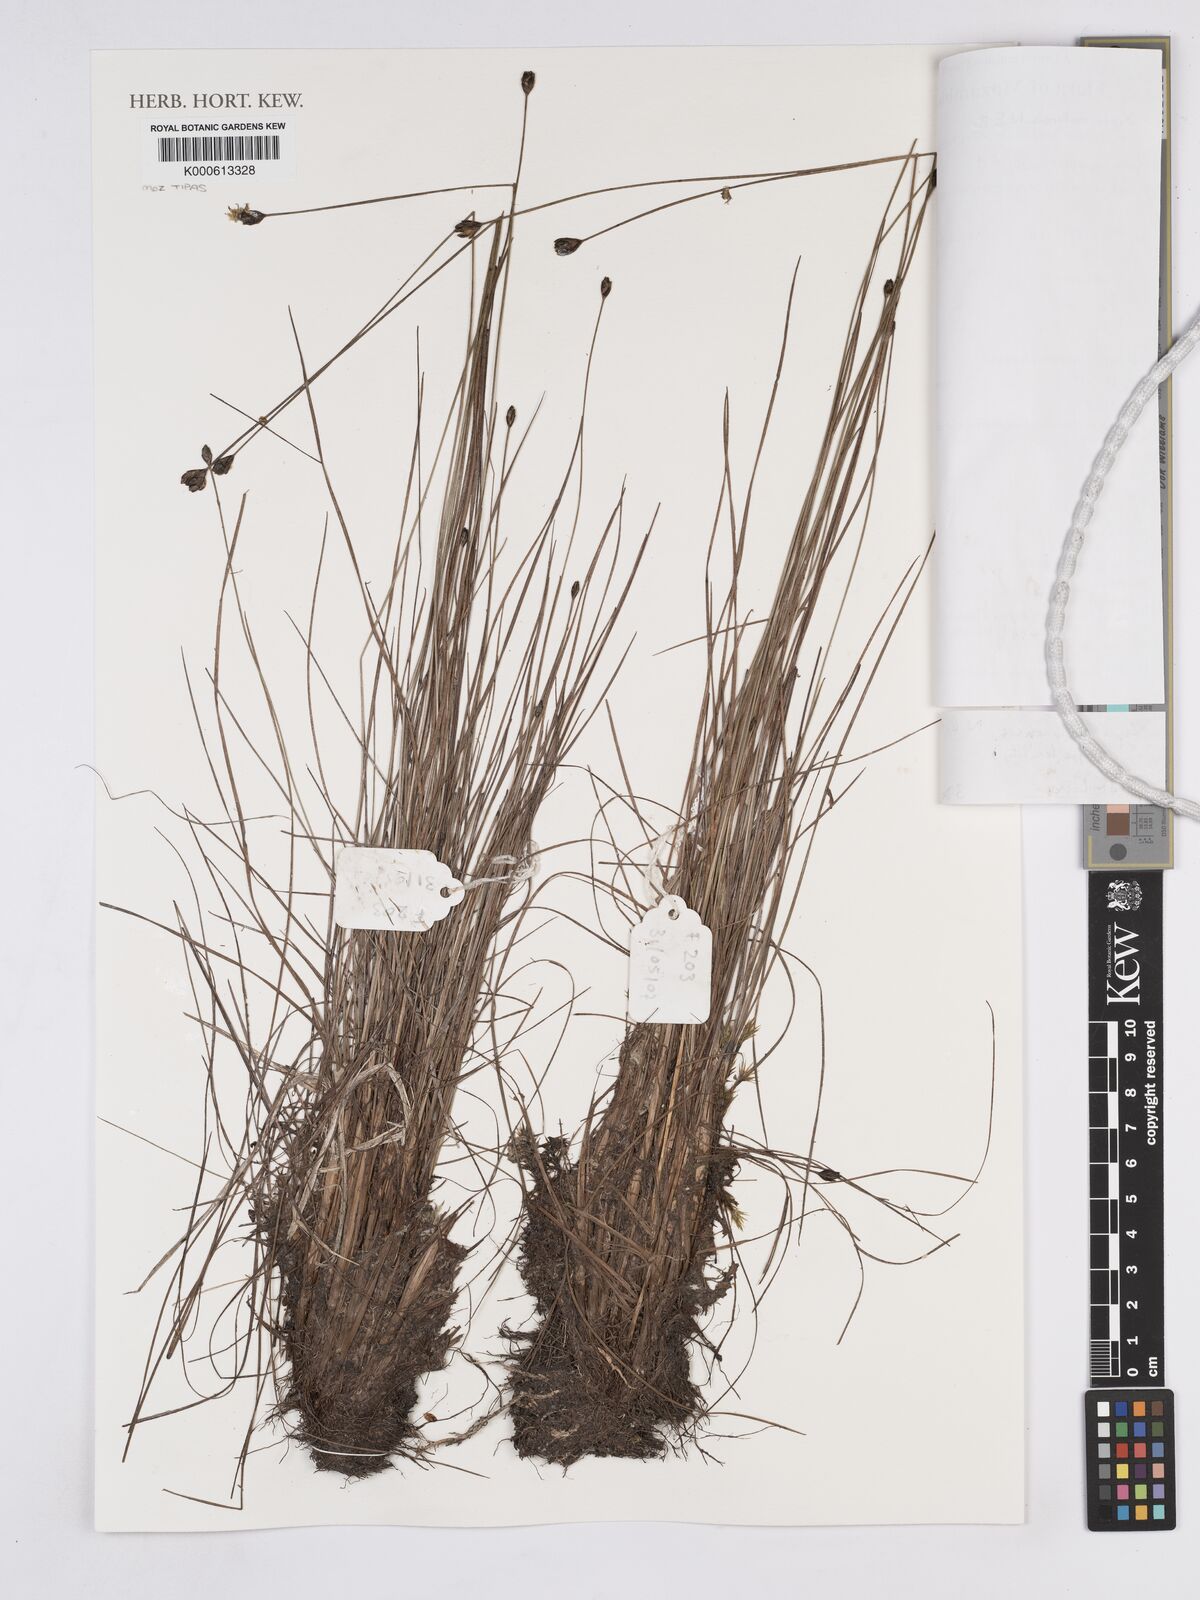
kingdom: Plantae
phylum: Tracheophyta
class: Liliopsida
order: Poales
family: Xyridaceae
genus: Xyris
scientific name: Xyris makuensis
